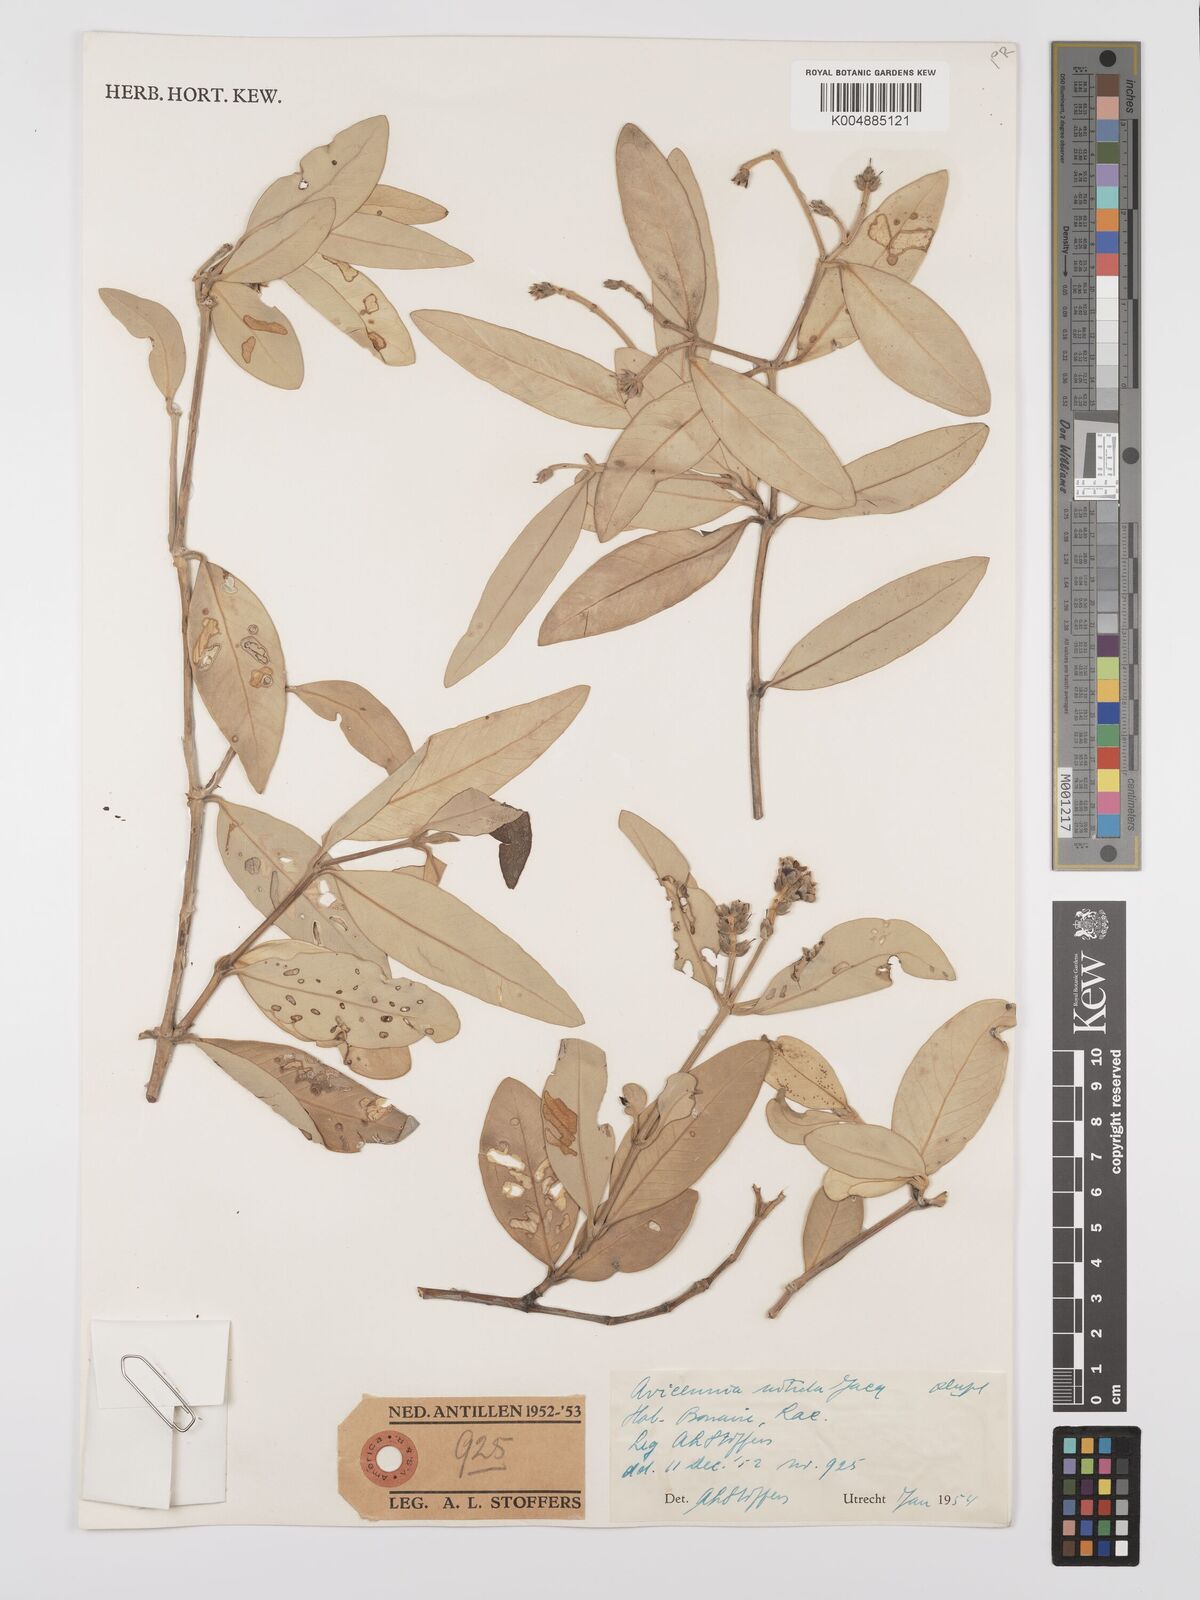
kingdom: Plantae
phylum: Tracheophyta
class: Magnoliopsida
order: Lamiales
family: Acanthaceae
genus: Avicennia
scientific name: Avicennia marina
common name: Gray mangrove
